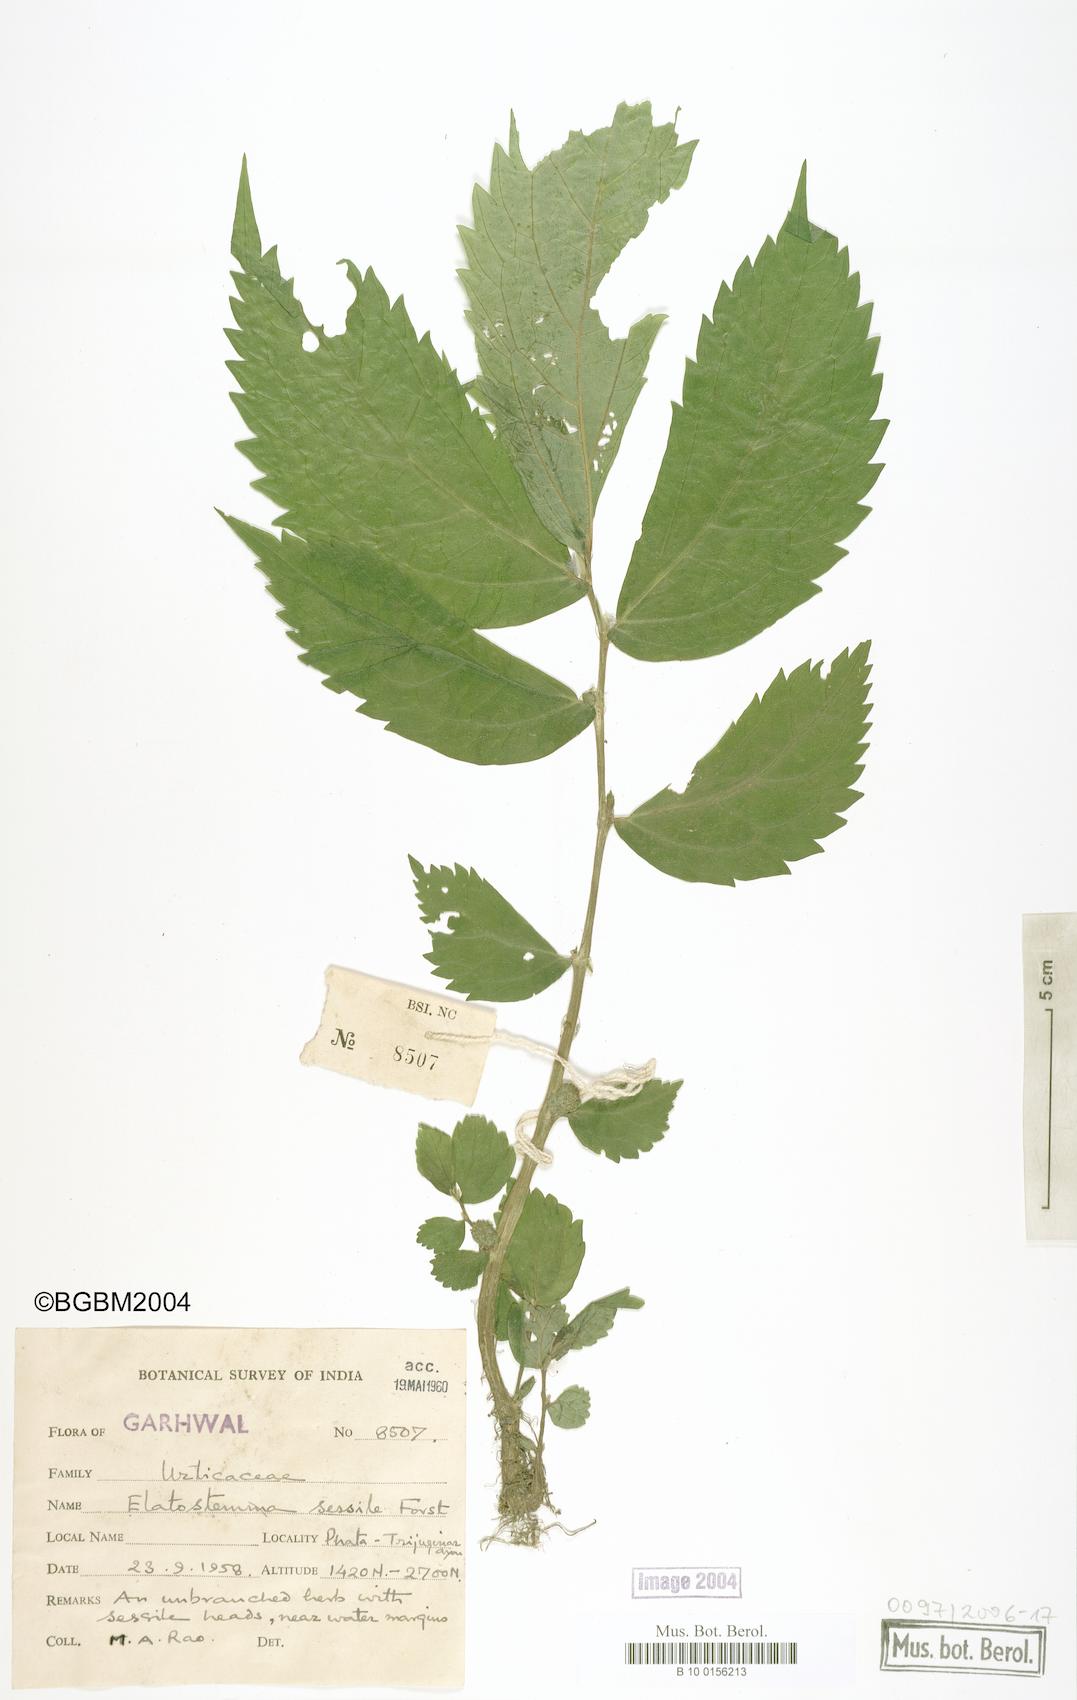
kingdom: Plantae
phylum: Tracheophyta
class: Magnoliopsida
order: Rosales
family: Urticaceae
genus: Elatostema
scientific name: Elatostema sessile
